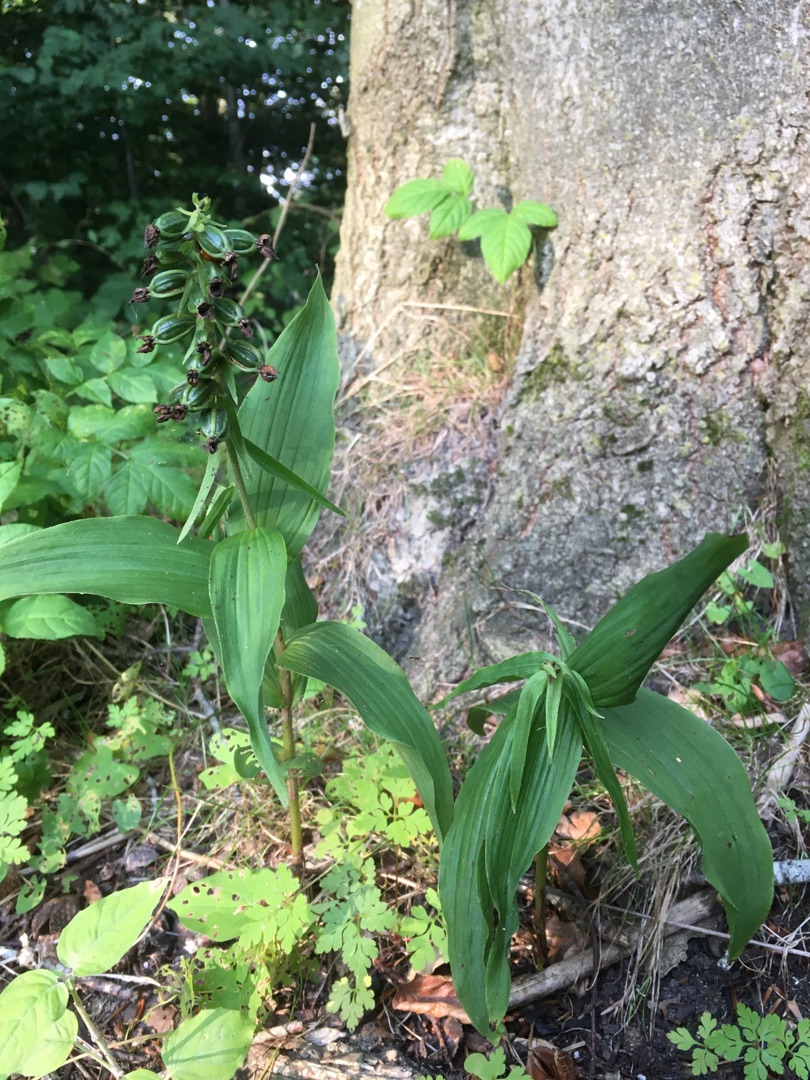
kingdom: Plantae
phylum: Tracheophyta
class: Liliopsida
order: Asparagales
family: Orchidaceae
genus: Epipactis
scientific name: Epipactis helleborine
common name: Skov-hullæbe
